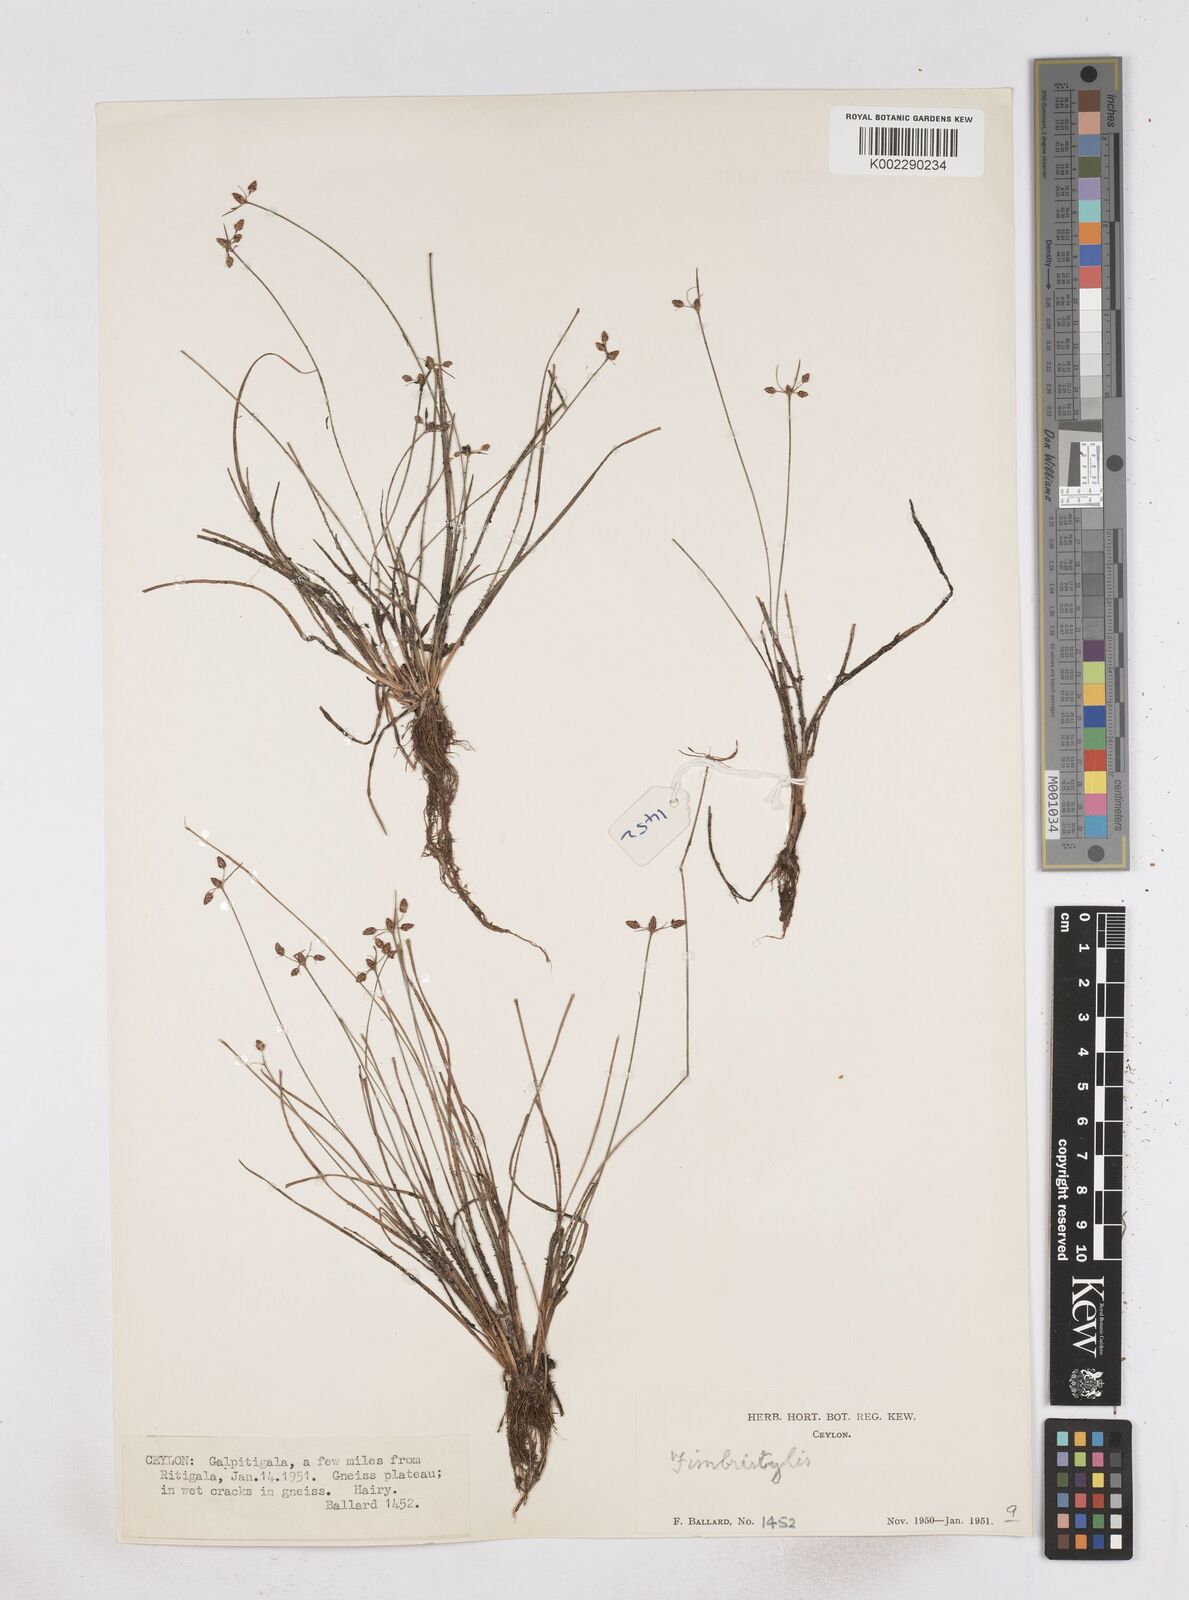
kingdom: Plantae
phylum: Tracheophyta
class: Liliopsida
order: Poales
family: Cyperaceae
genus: Fimbristylis
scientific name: Fimbristylis
